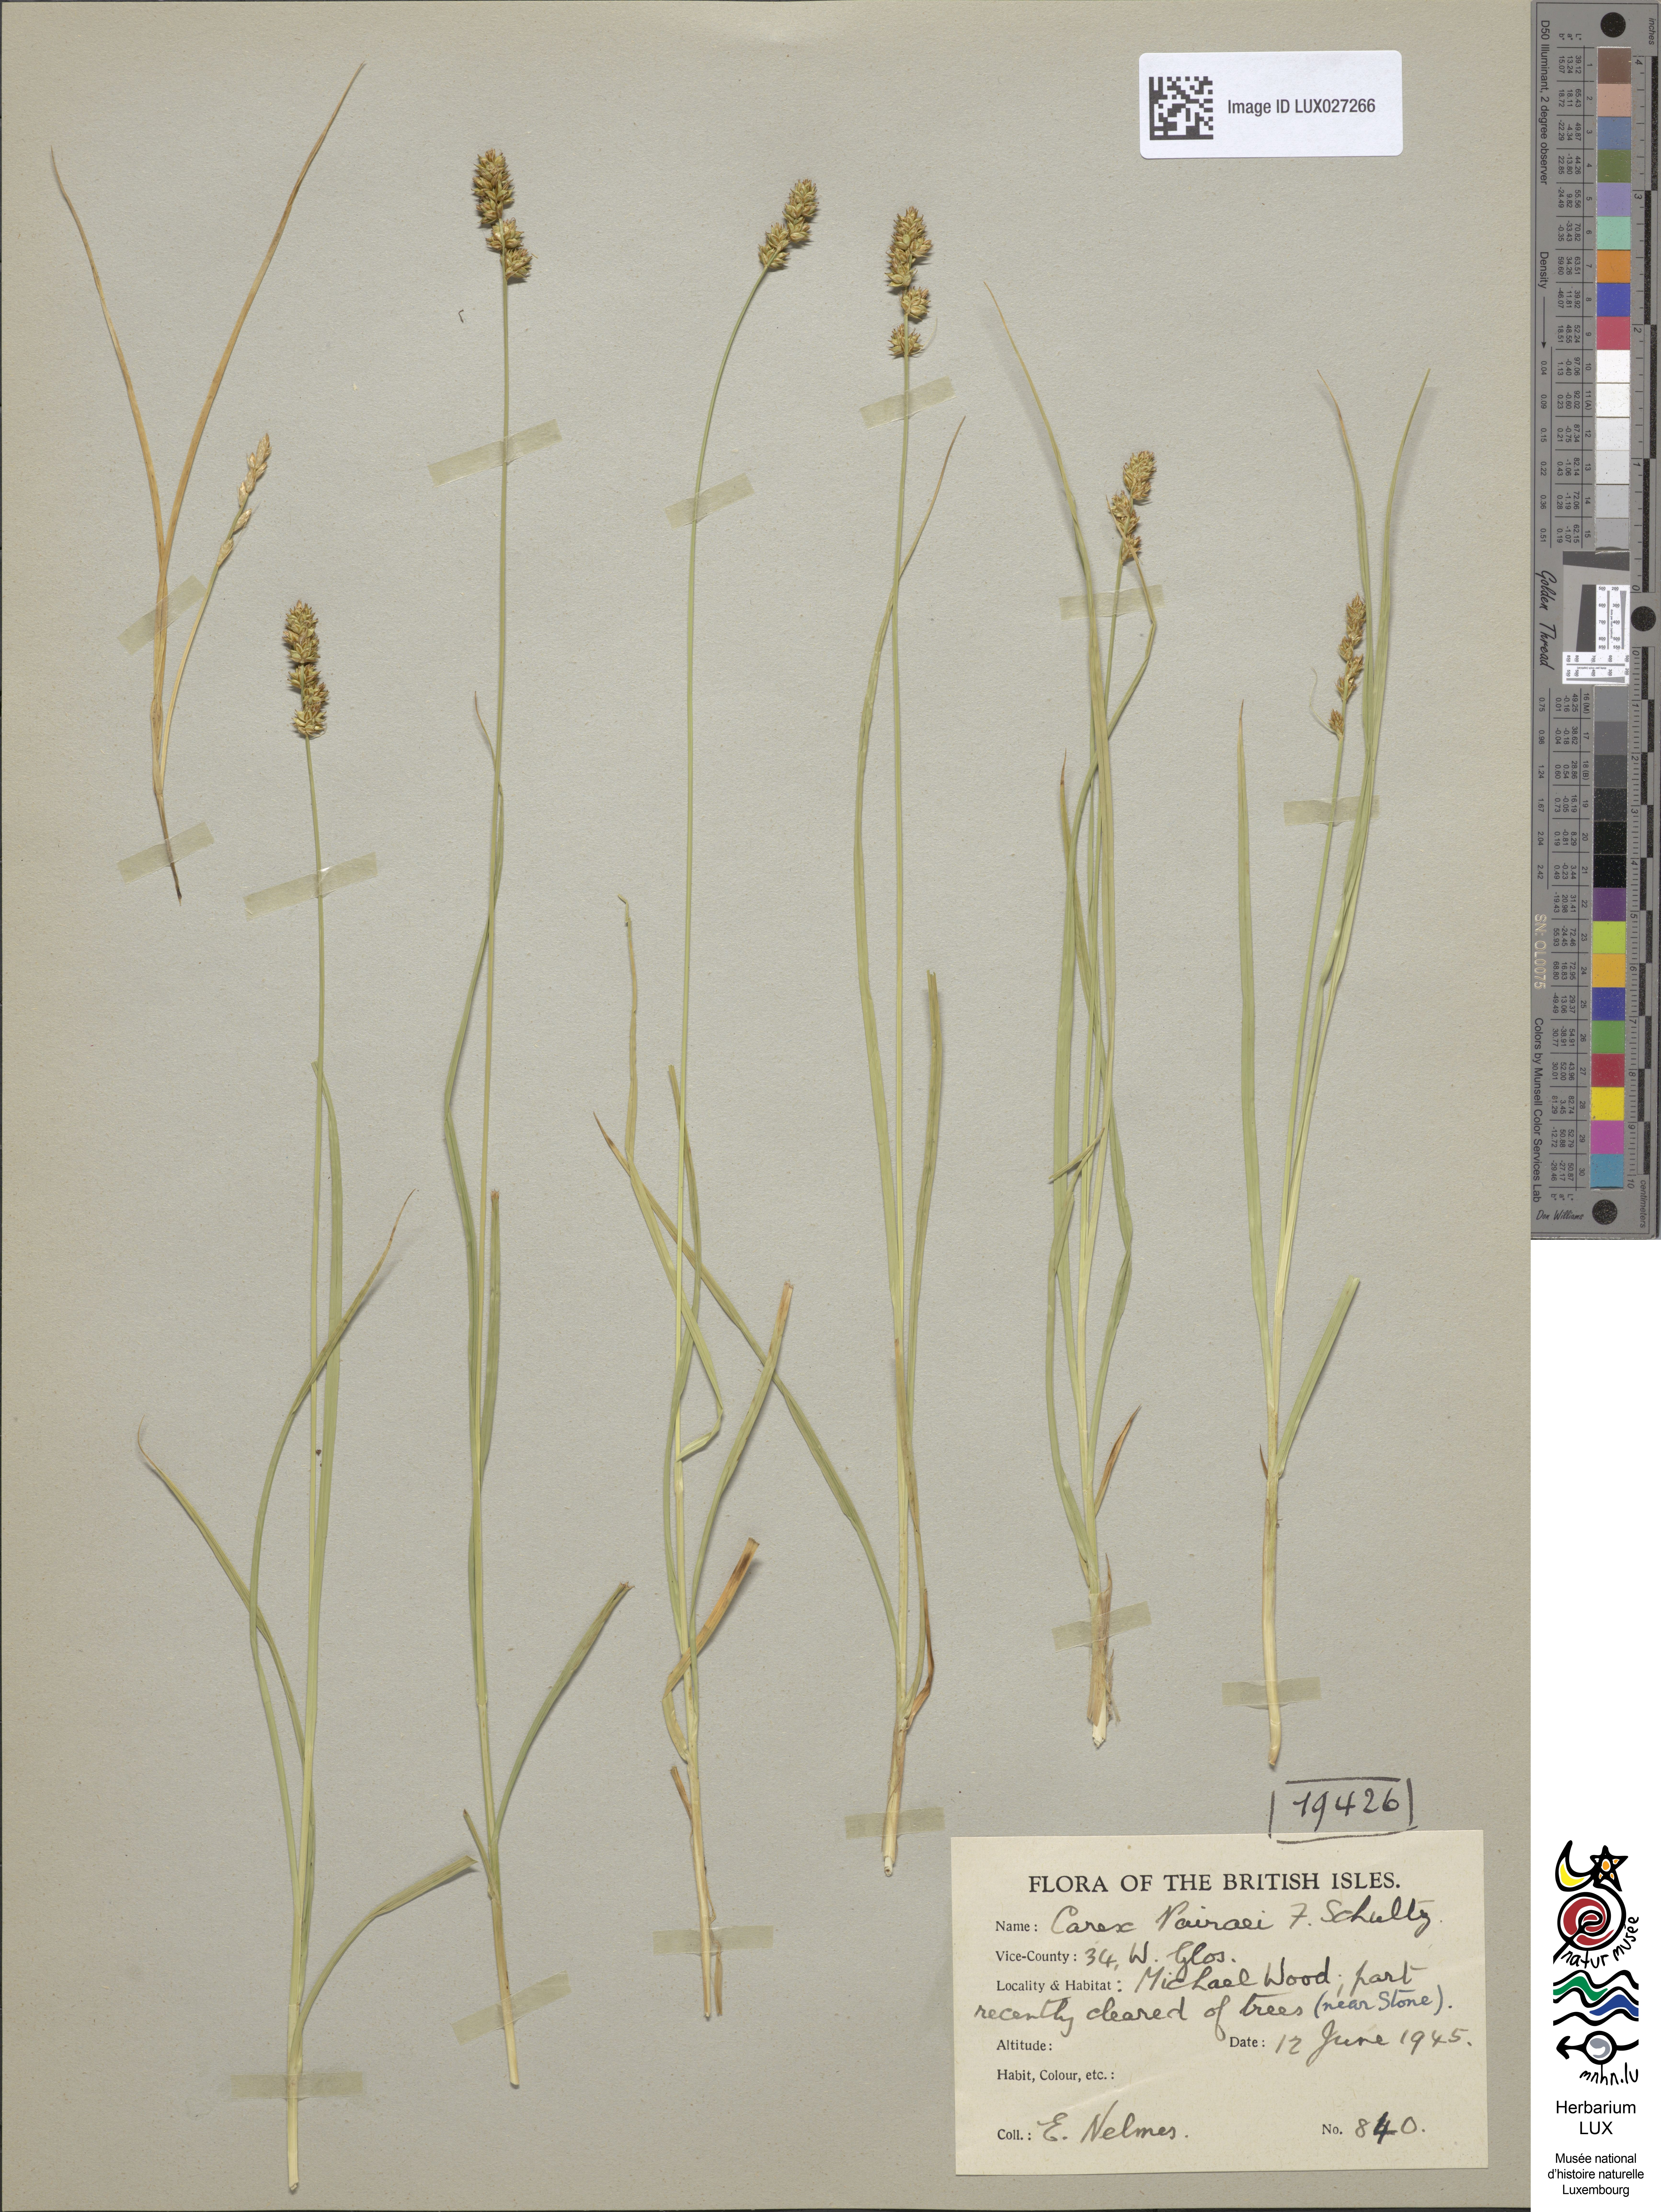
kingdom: Plantae
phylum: Tracheophyta
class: Liliopsida
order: Poales
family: Cyperaceae
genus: Carex
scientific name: Carex pairae
